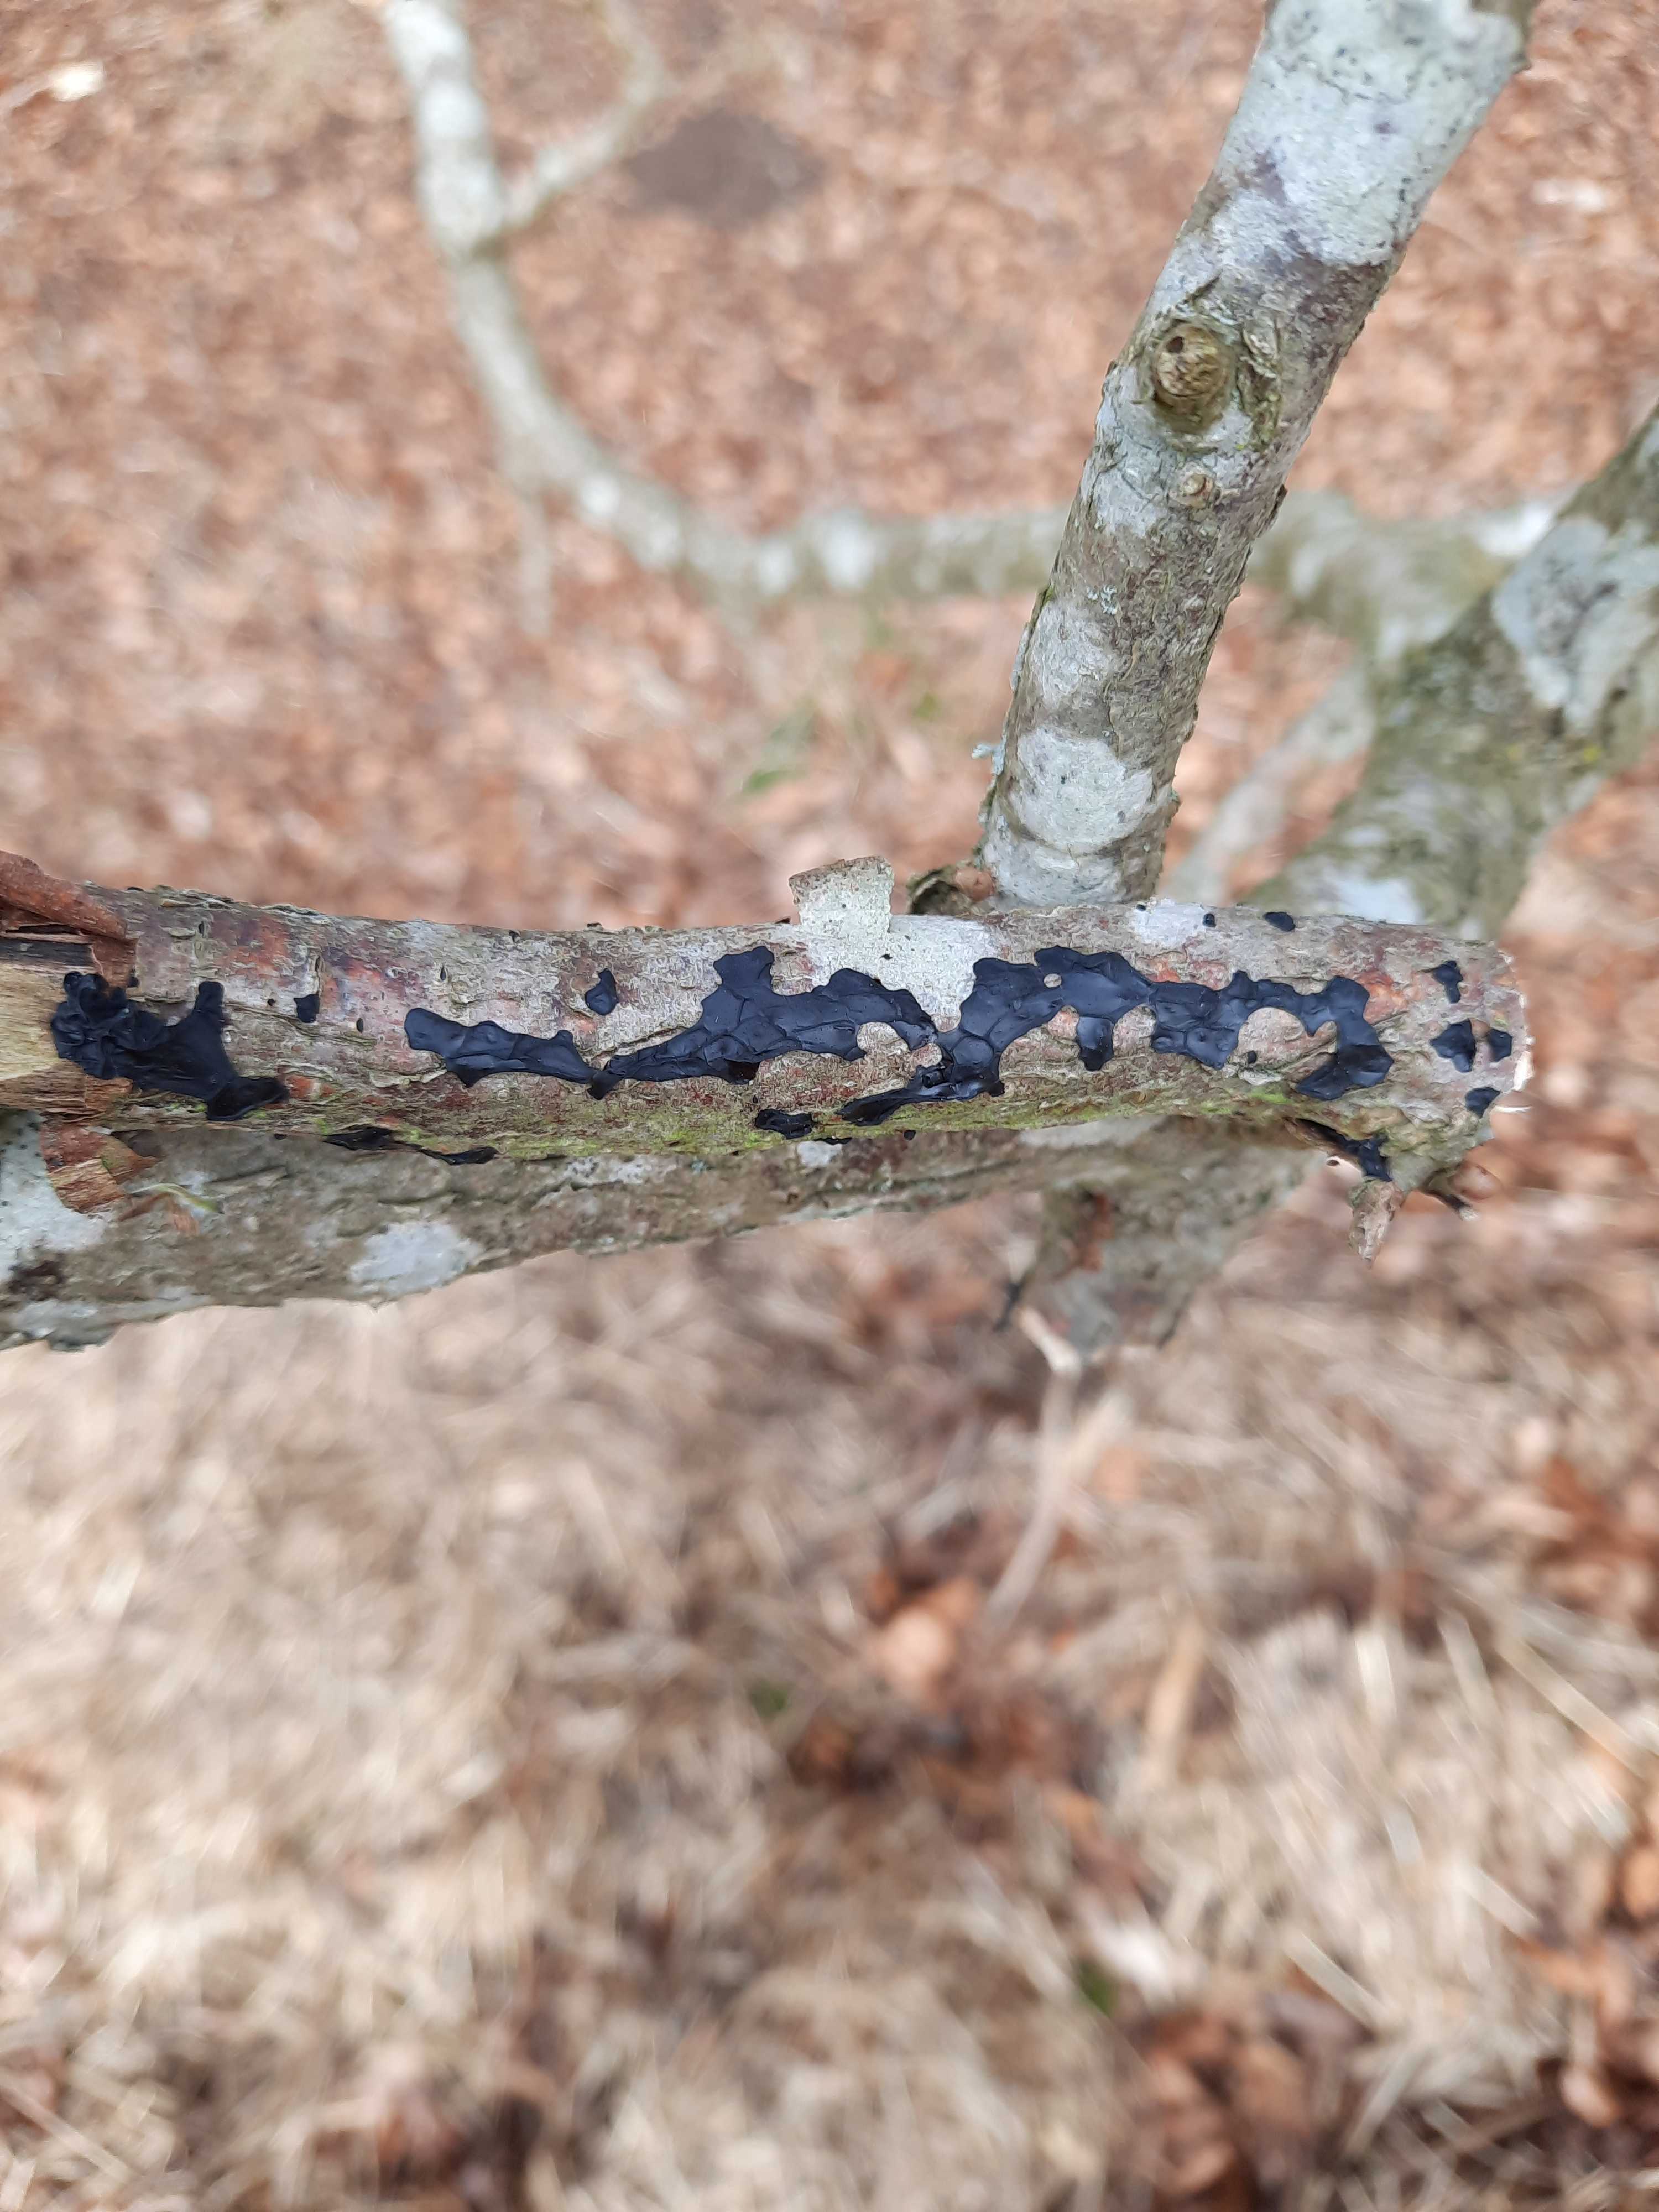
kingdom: Fungi
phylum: Basidiomycota
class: Agaricomycetes
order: Auriculariales
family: Auriculariaceae
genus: Exidia
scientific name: Exidia nigricans
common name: almindelig bævretop
